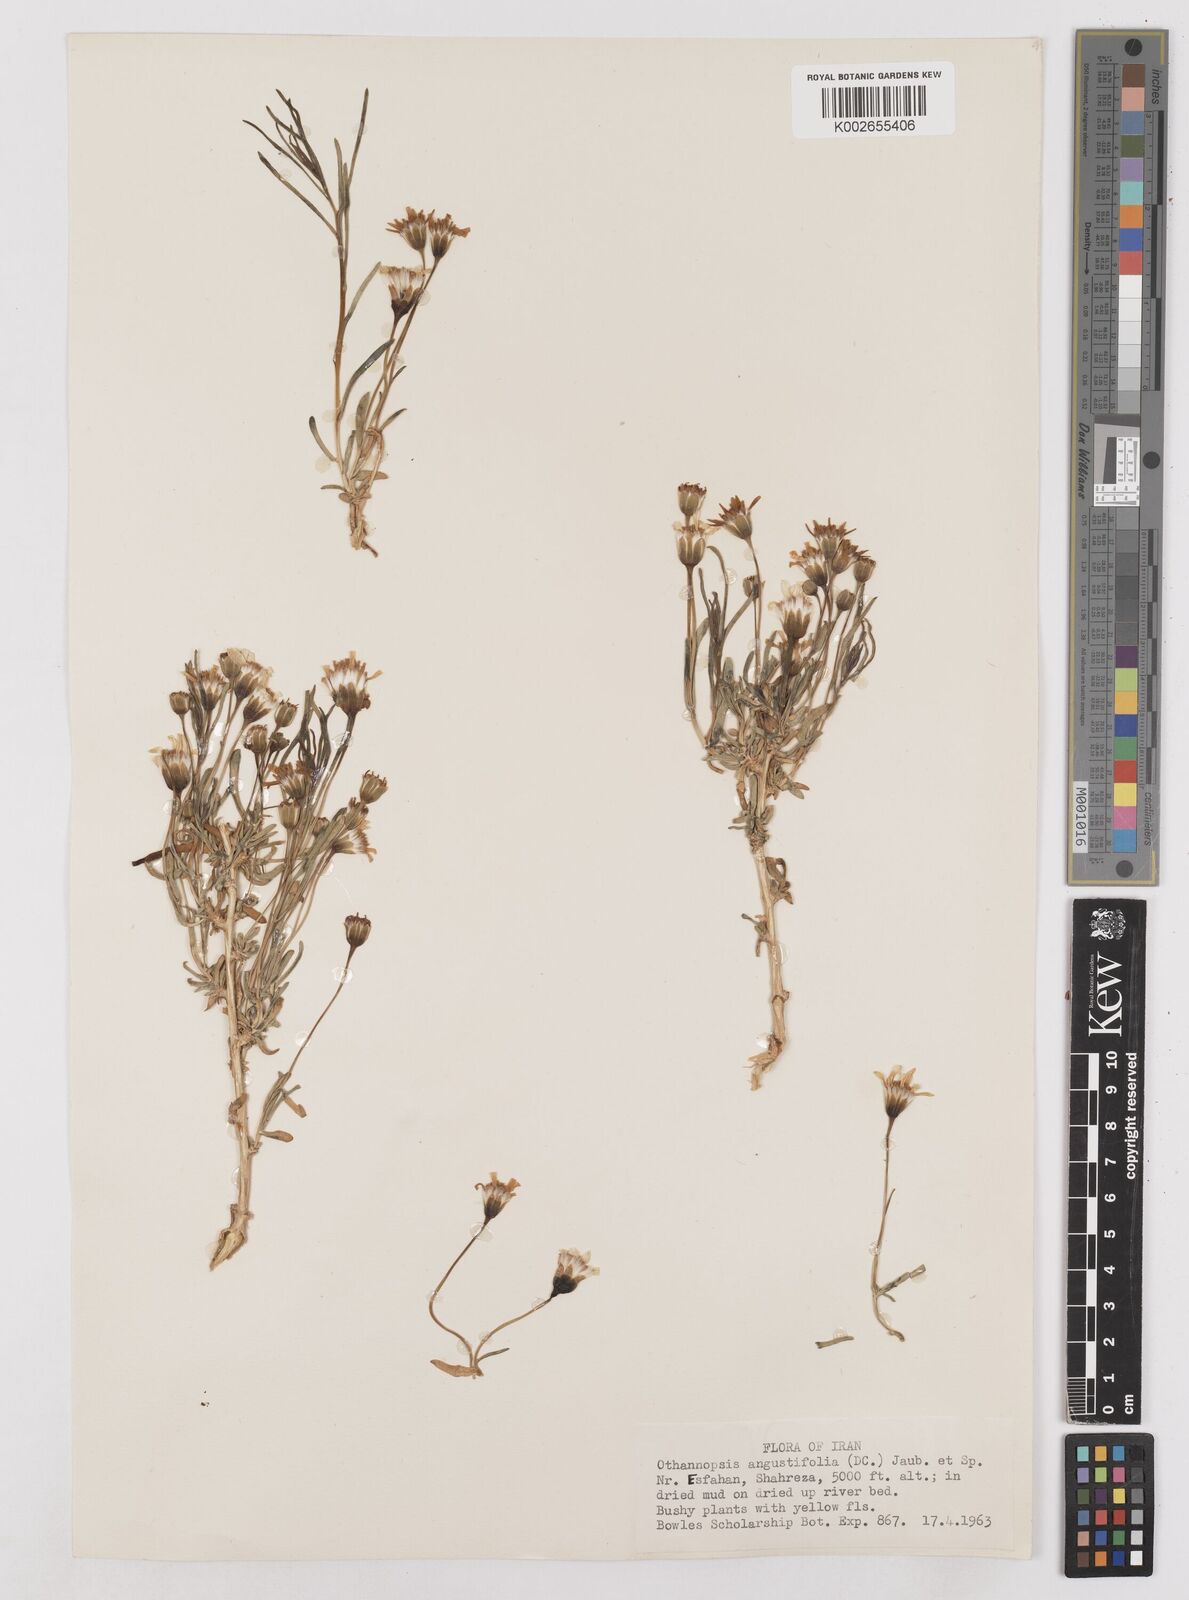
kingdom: Plantae
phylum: Tracheophyta
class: Magnoliopsida
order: Asterales
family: Asteraceae
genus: Hertia
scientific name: Hertia angustifolia
